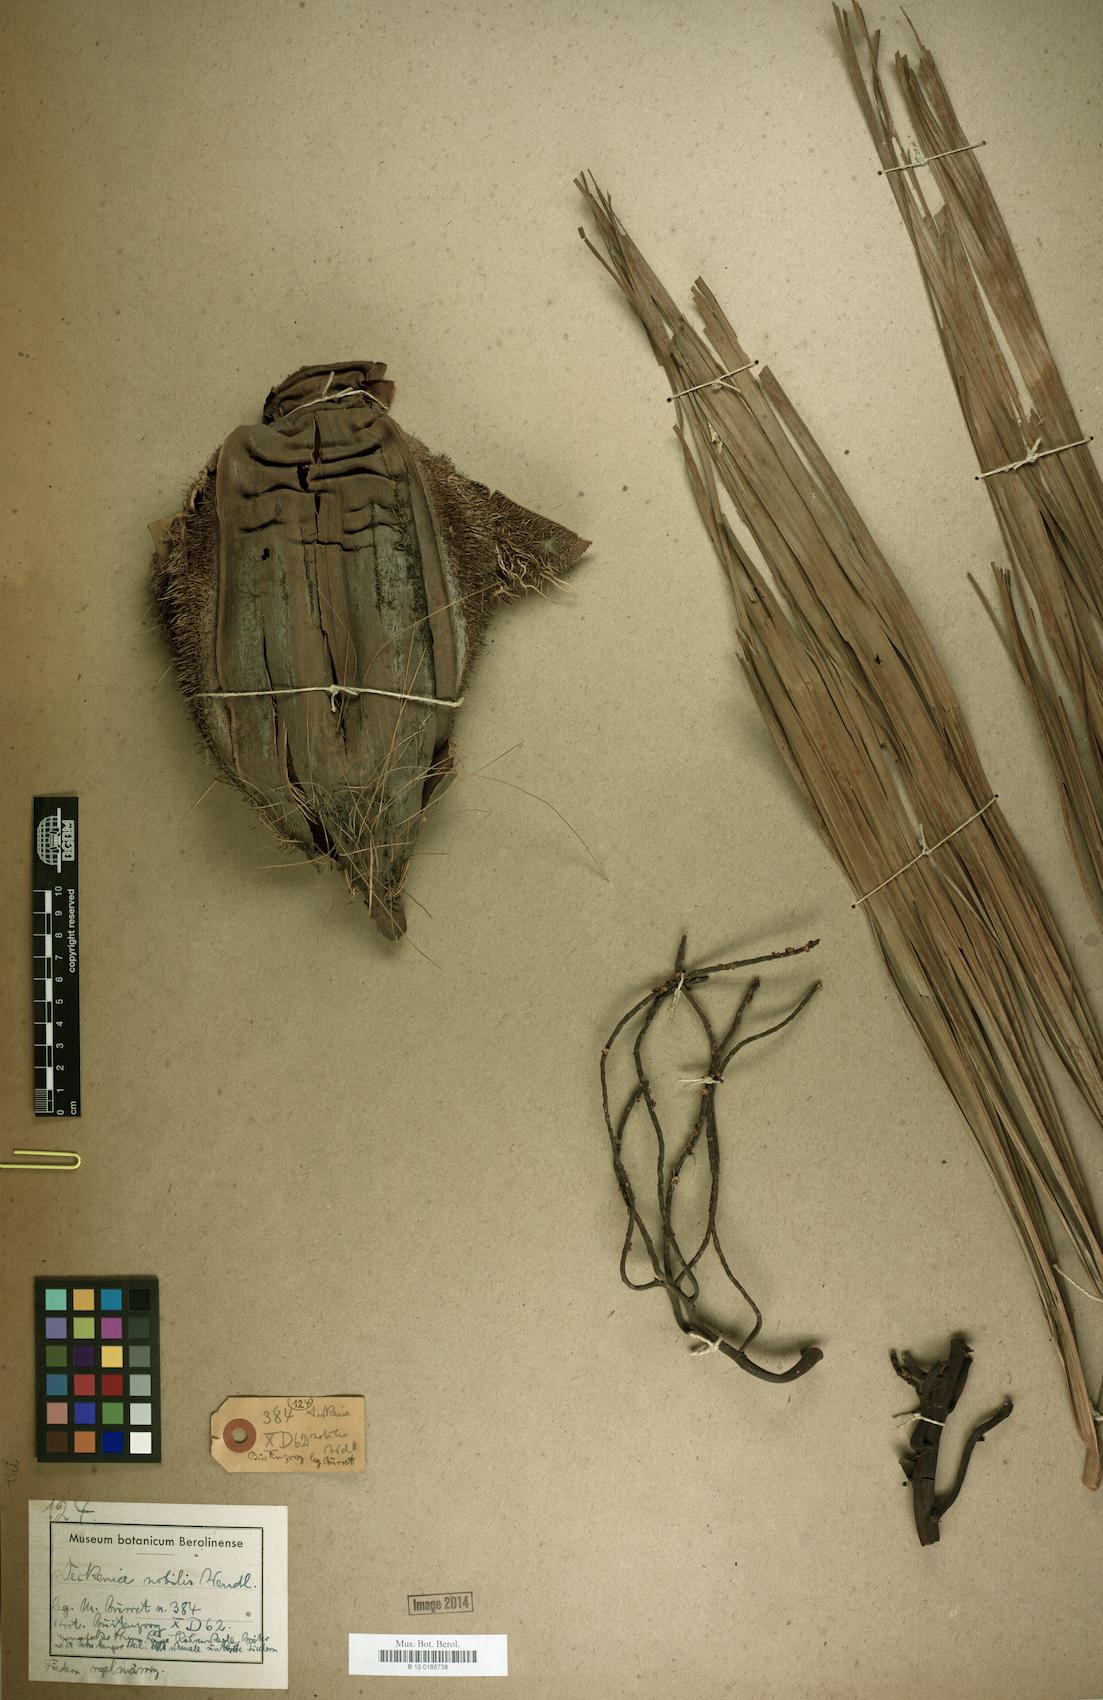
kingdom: Plantae
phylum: Tracheophyta
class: Liliopsida
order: Arecales
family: Arecaceae
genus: Deckenia
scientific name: Deckenia nobilis
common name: Cabbage palm
